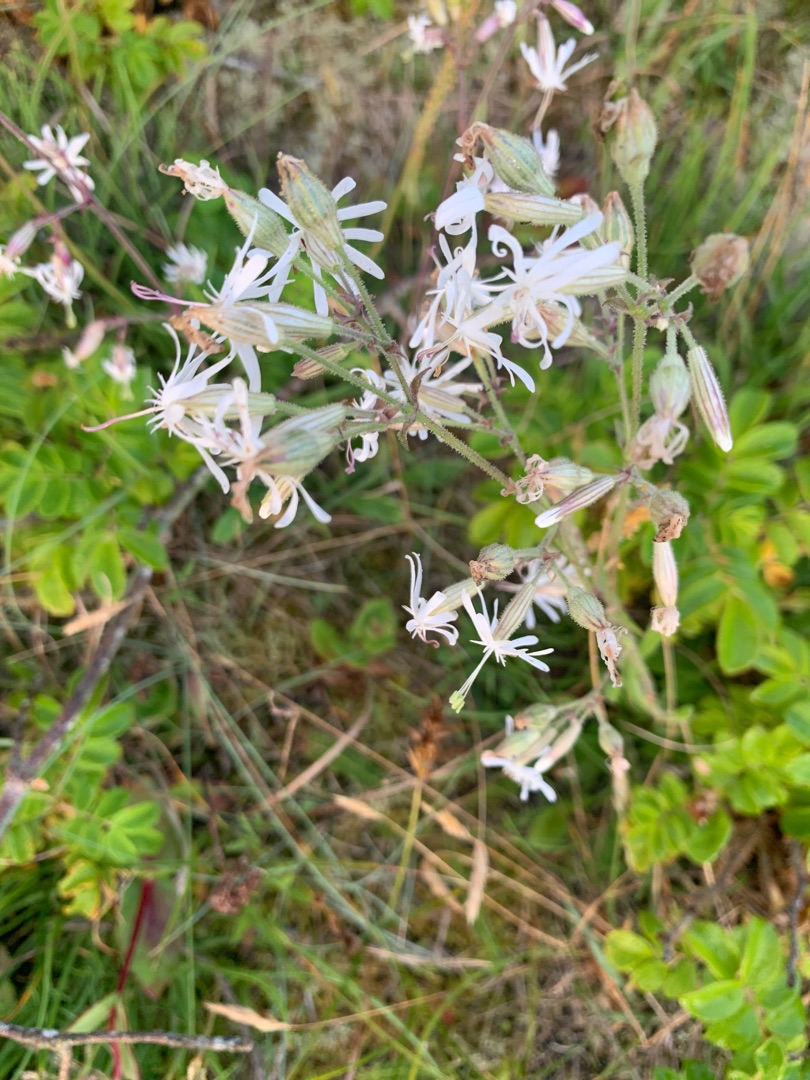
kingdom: Plantae
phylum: Tracheophyta
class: Magnoliopsida
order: Caryophyllales
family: Caryophyllaceae
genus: Silene
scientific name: Silene nutans
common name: Nikkende limurt
